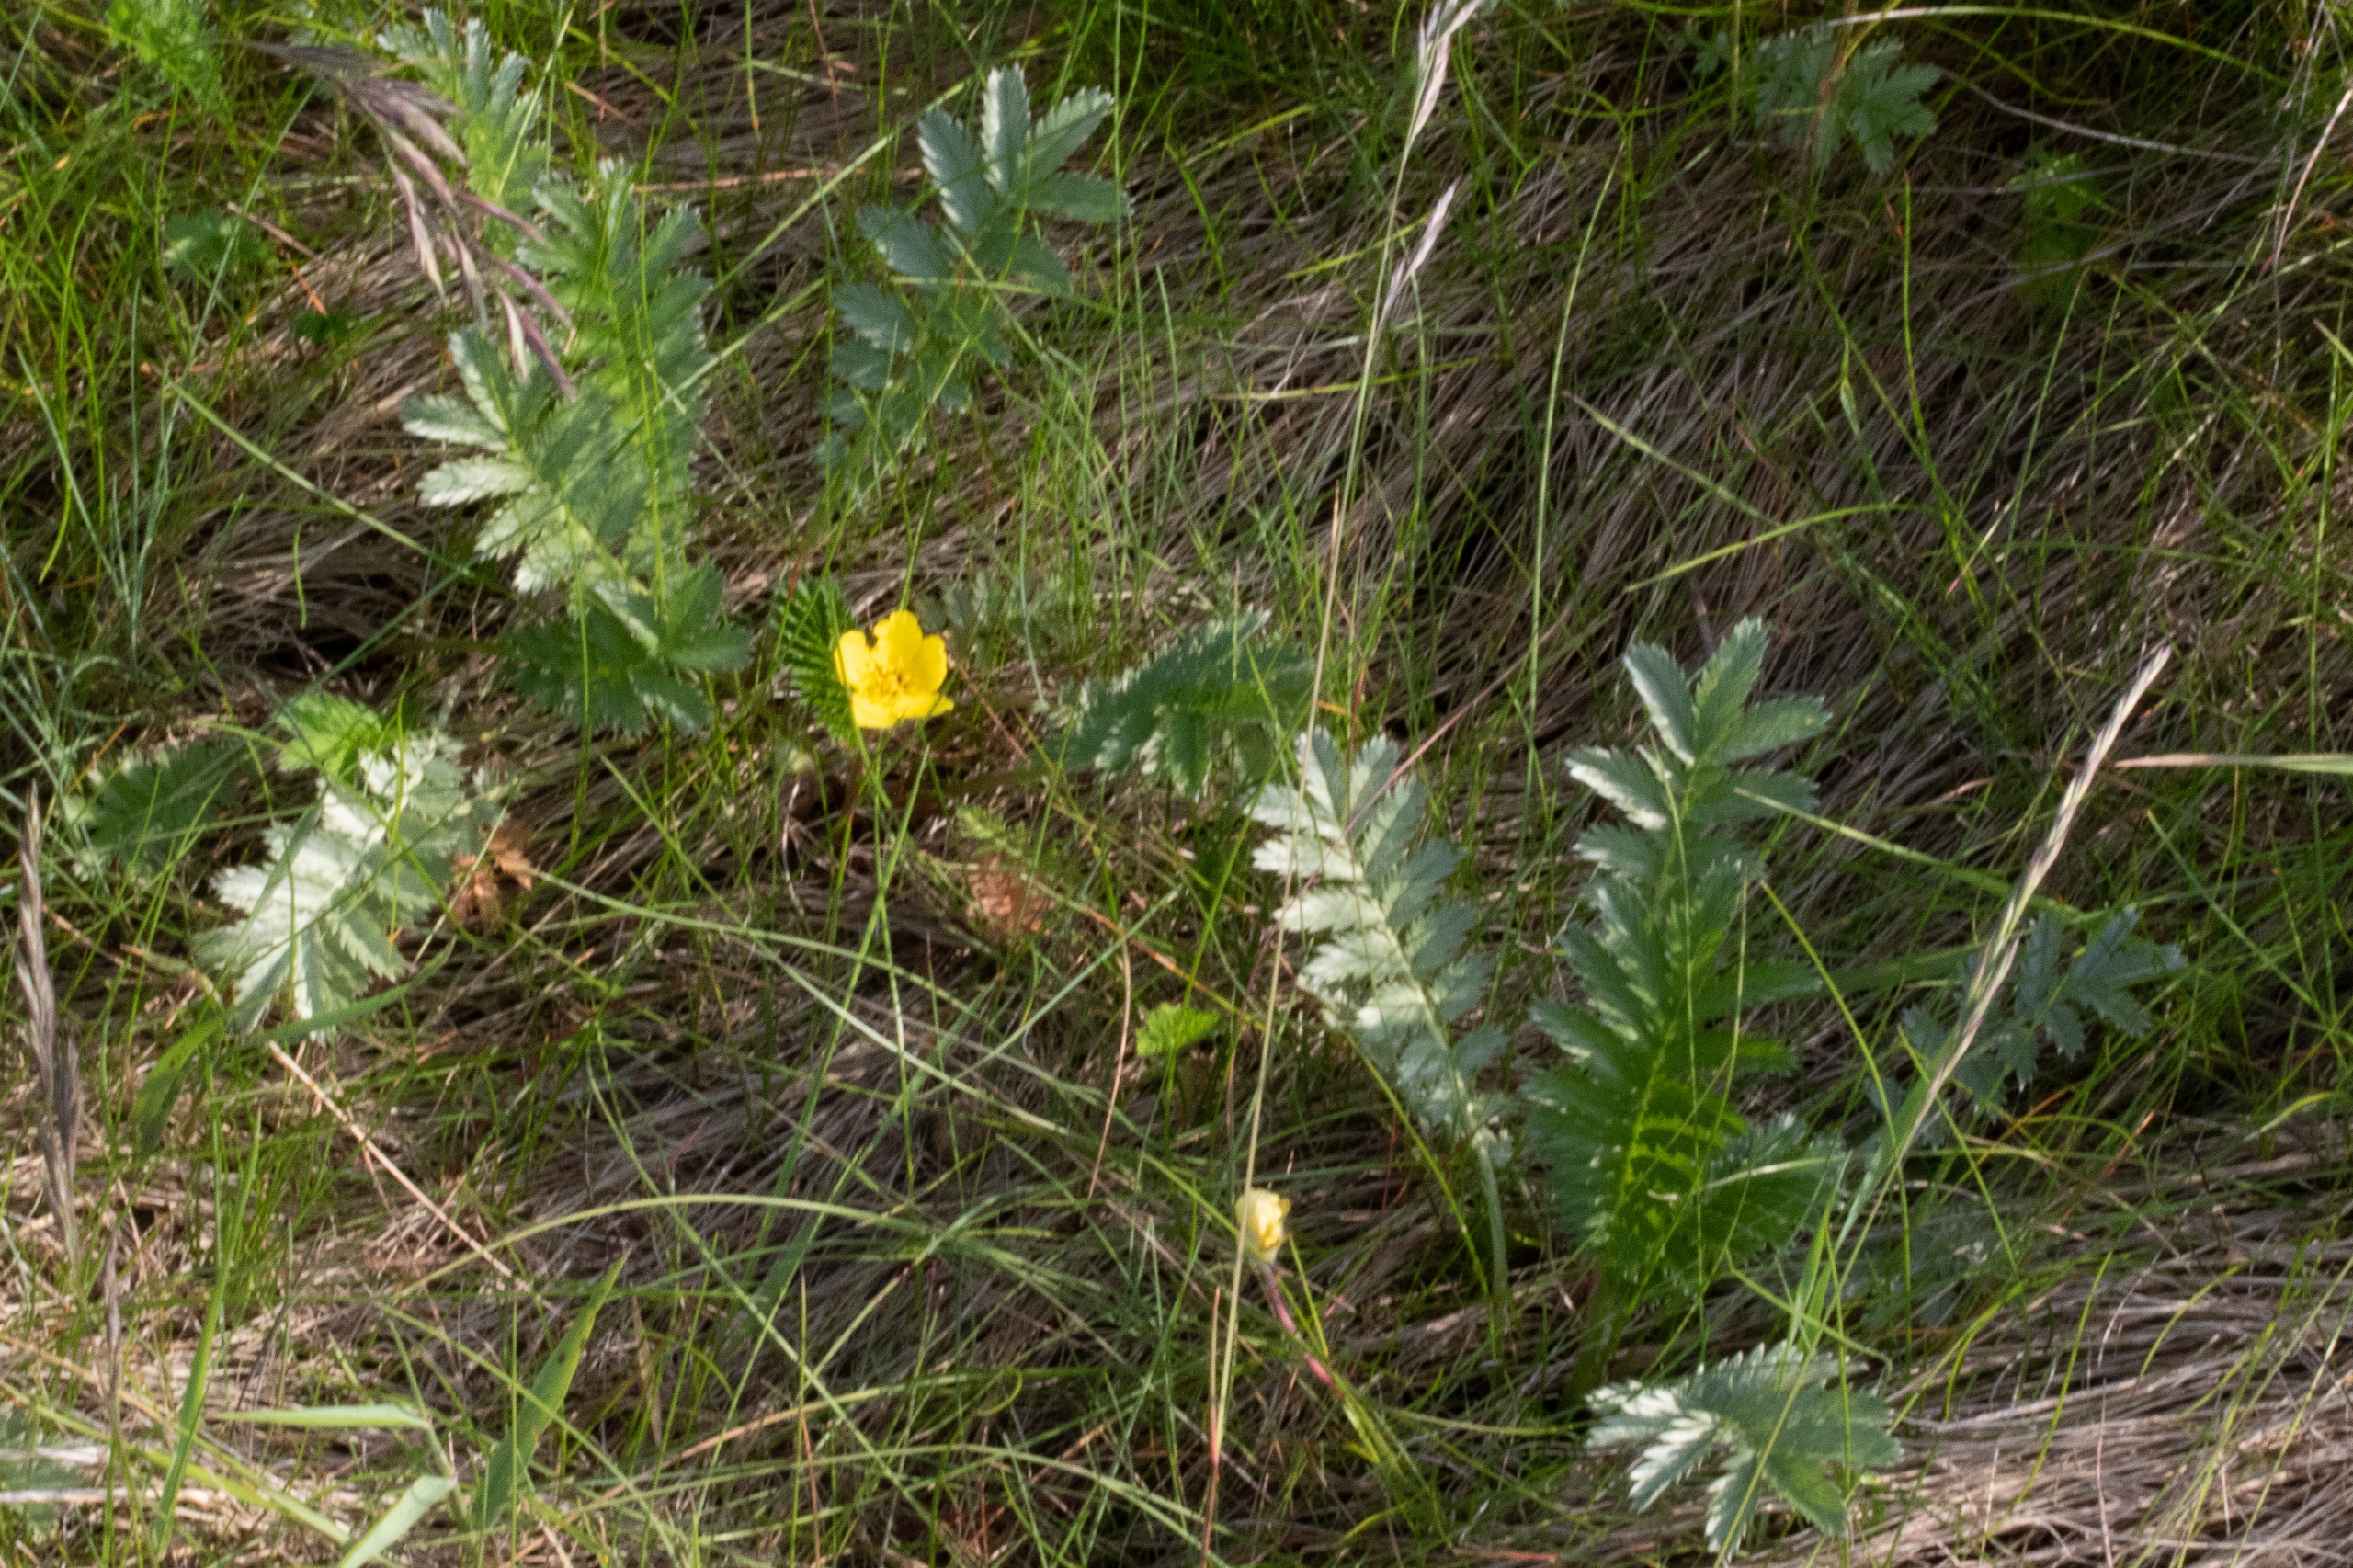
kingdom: Plantae
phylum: Tracheophyta
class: Magnoliopsida
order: Rosales
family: Rosaceae
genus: Argentina
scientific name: Argentina anserina
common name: Gåsepotentil
